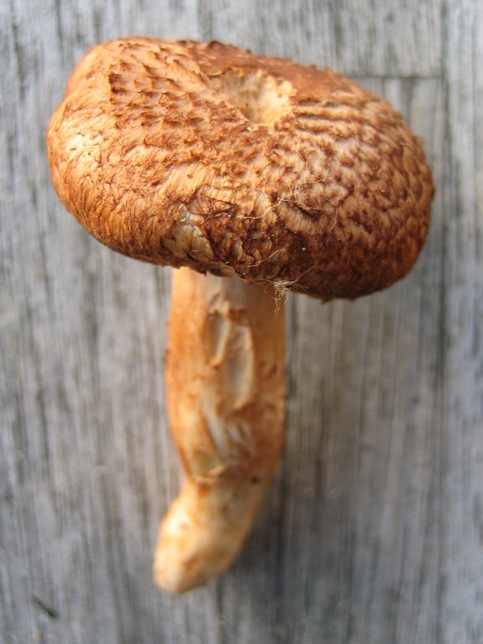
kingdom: Fungi
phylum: Basidiomycota
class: Agaricomycetes
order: Agaricales
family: Tricholomataceae
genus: Tricholoma
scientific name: Tricholoma vaccinum
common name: ko-ridderhat
